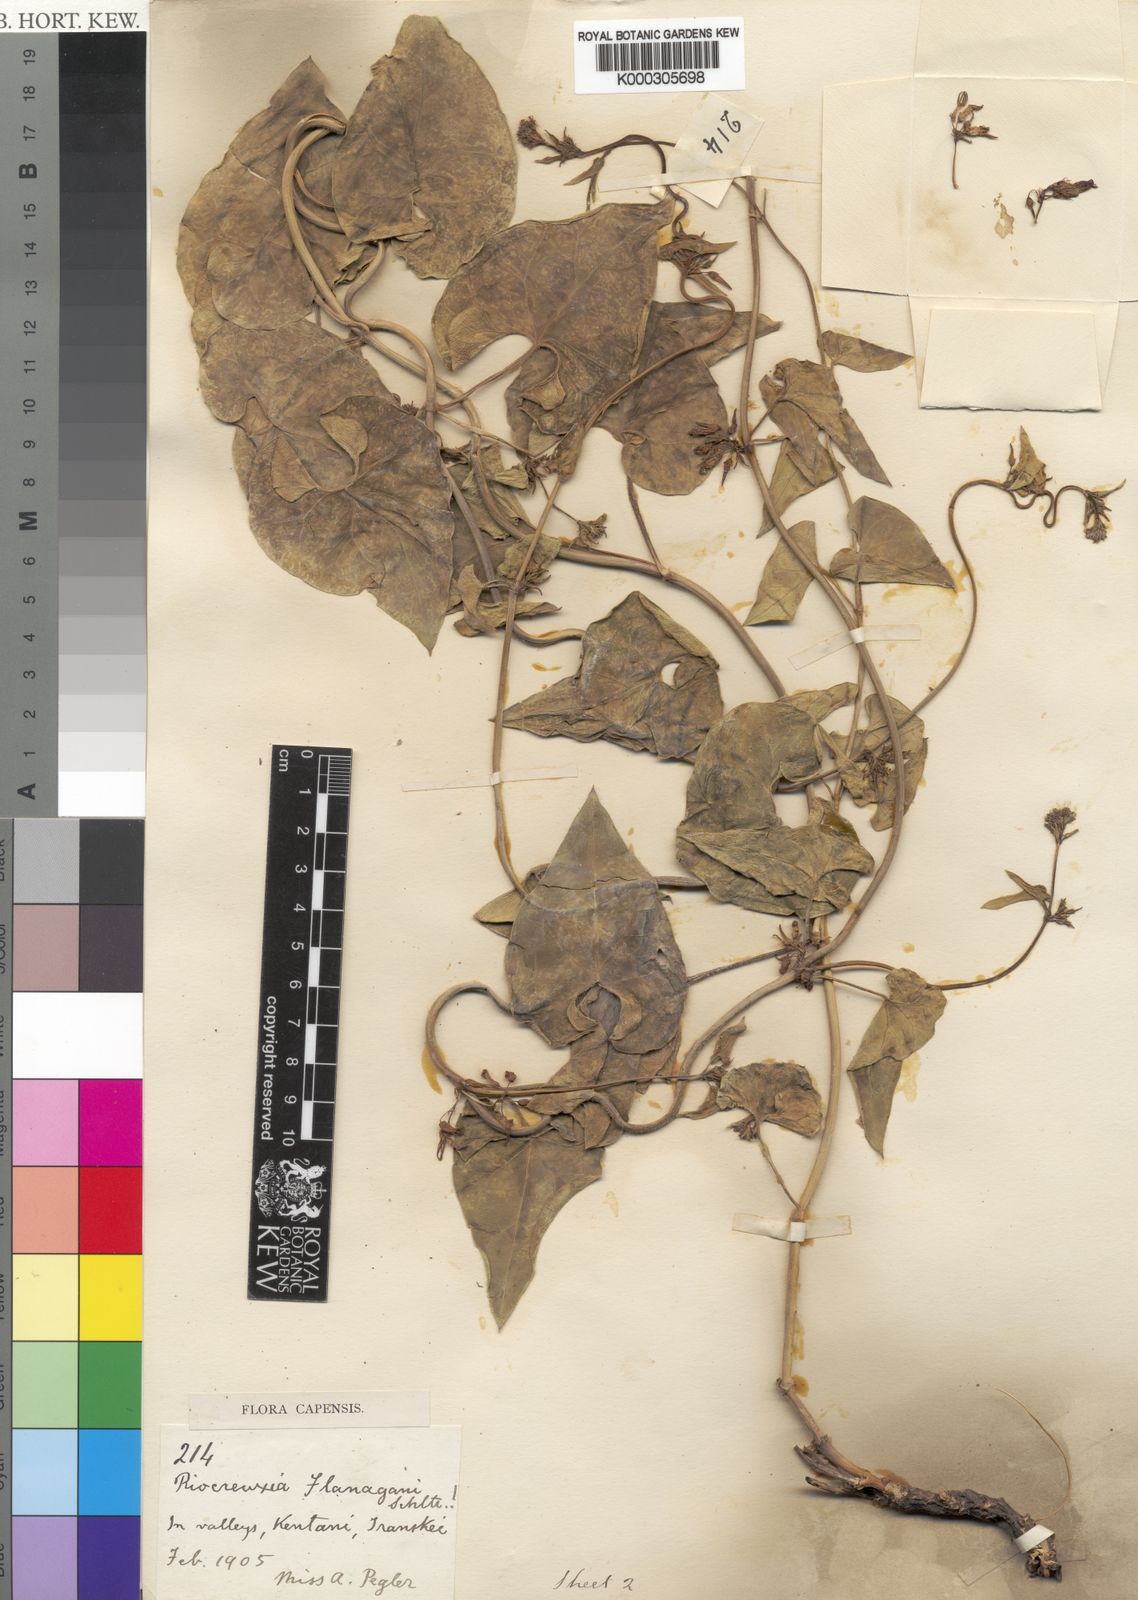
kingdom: Plantae
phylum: Tracheophyta
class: Magnoliopsida
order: Gentianales
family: Apocynaceae
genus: Riocreuxia
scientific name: Riocreuxia flanaganii
